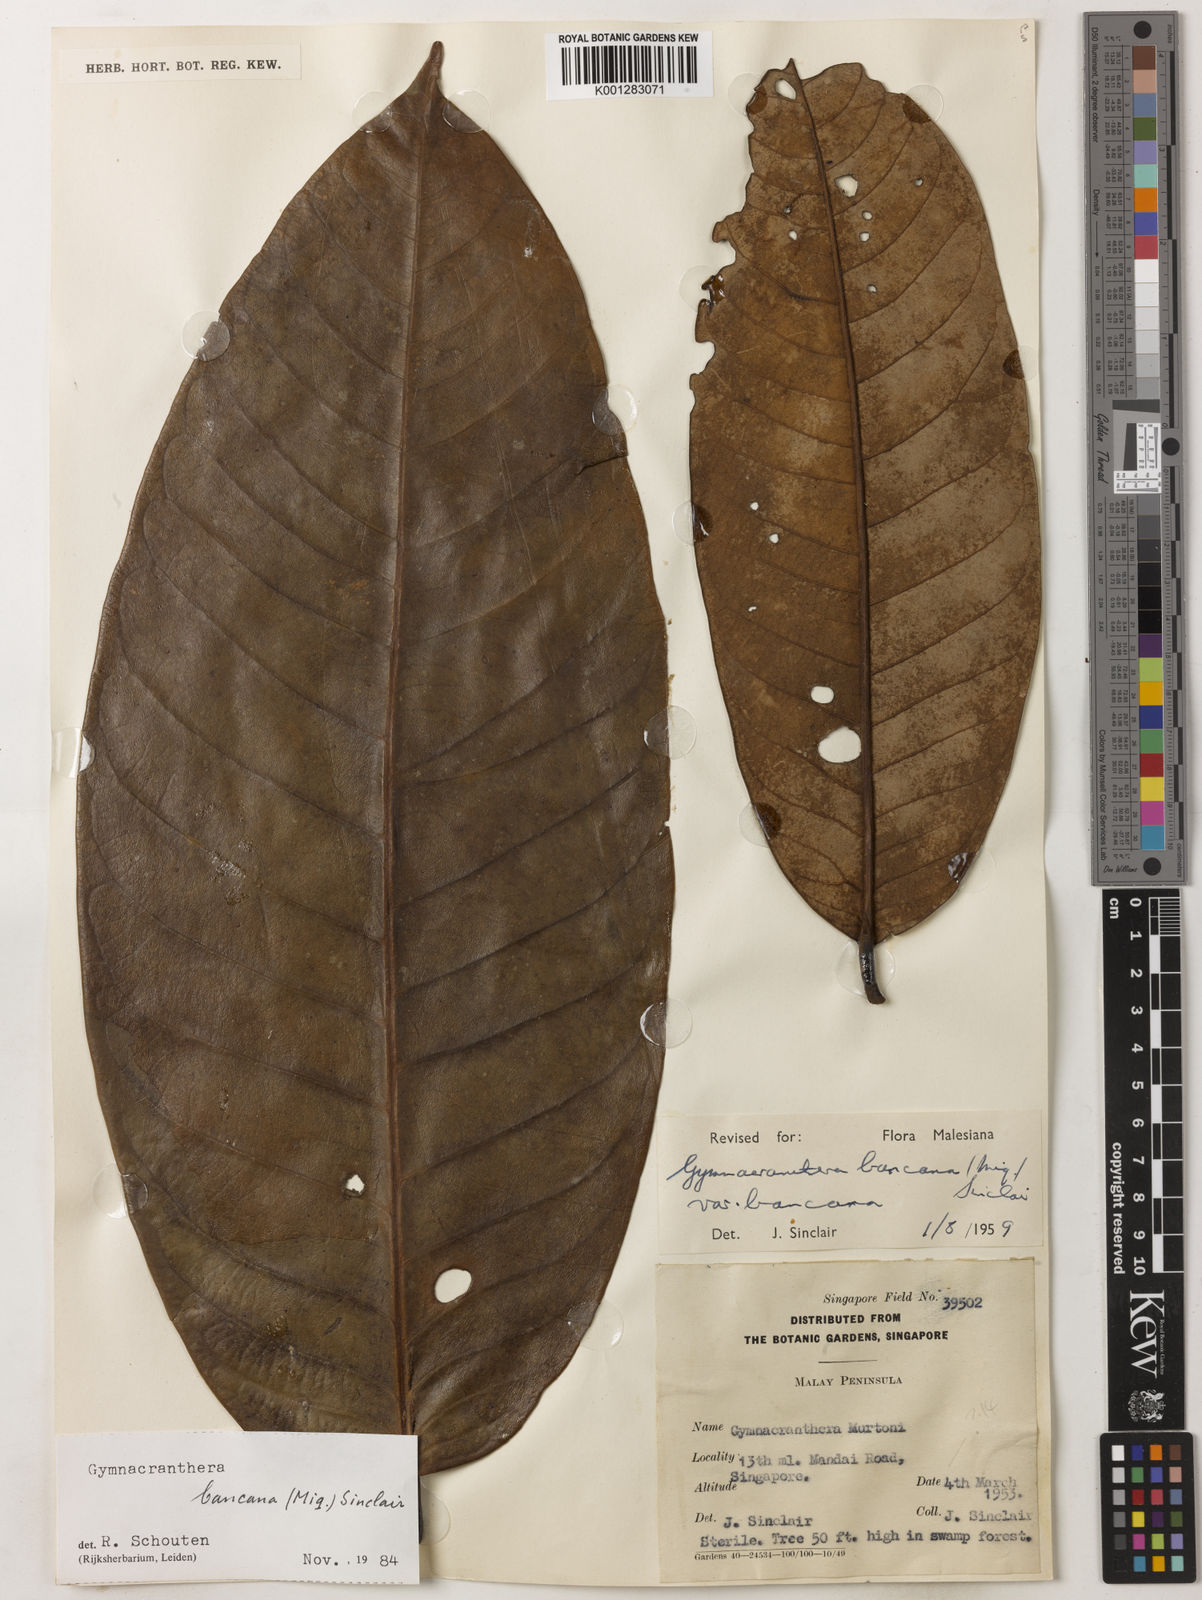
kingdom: Plantae
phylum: Tracheophyta
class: Magnoliopsida
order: Magnoliales
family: Myristicaceae
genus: Gymnacranthera
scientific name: Gymnacranthera bancana
